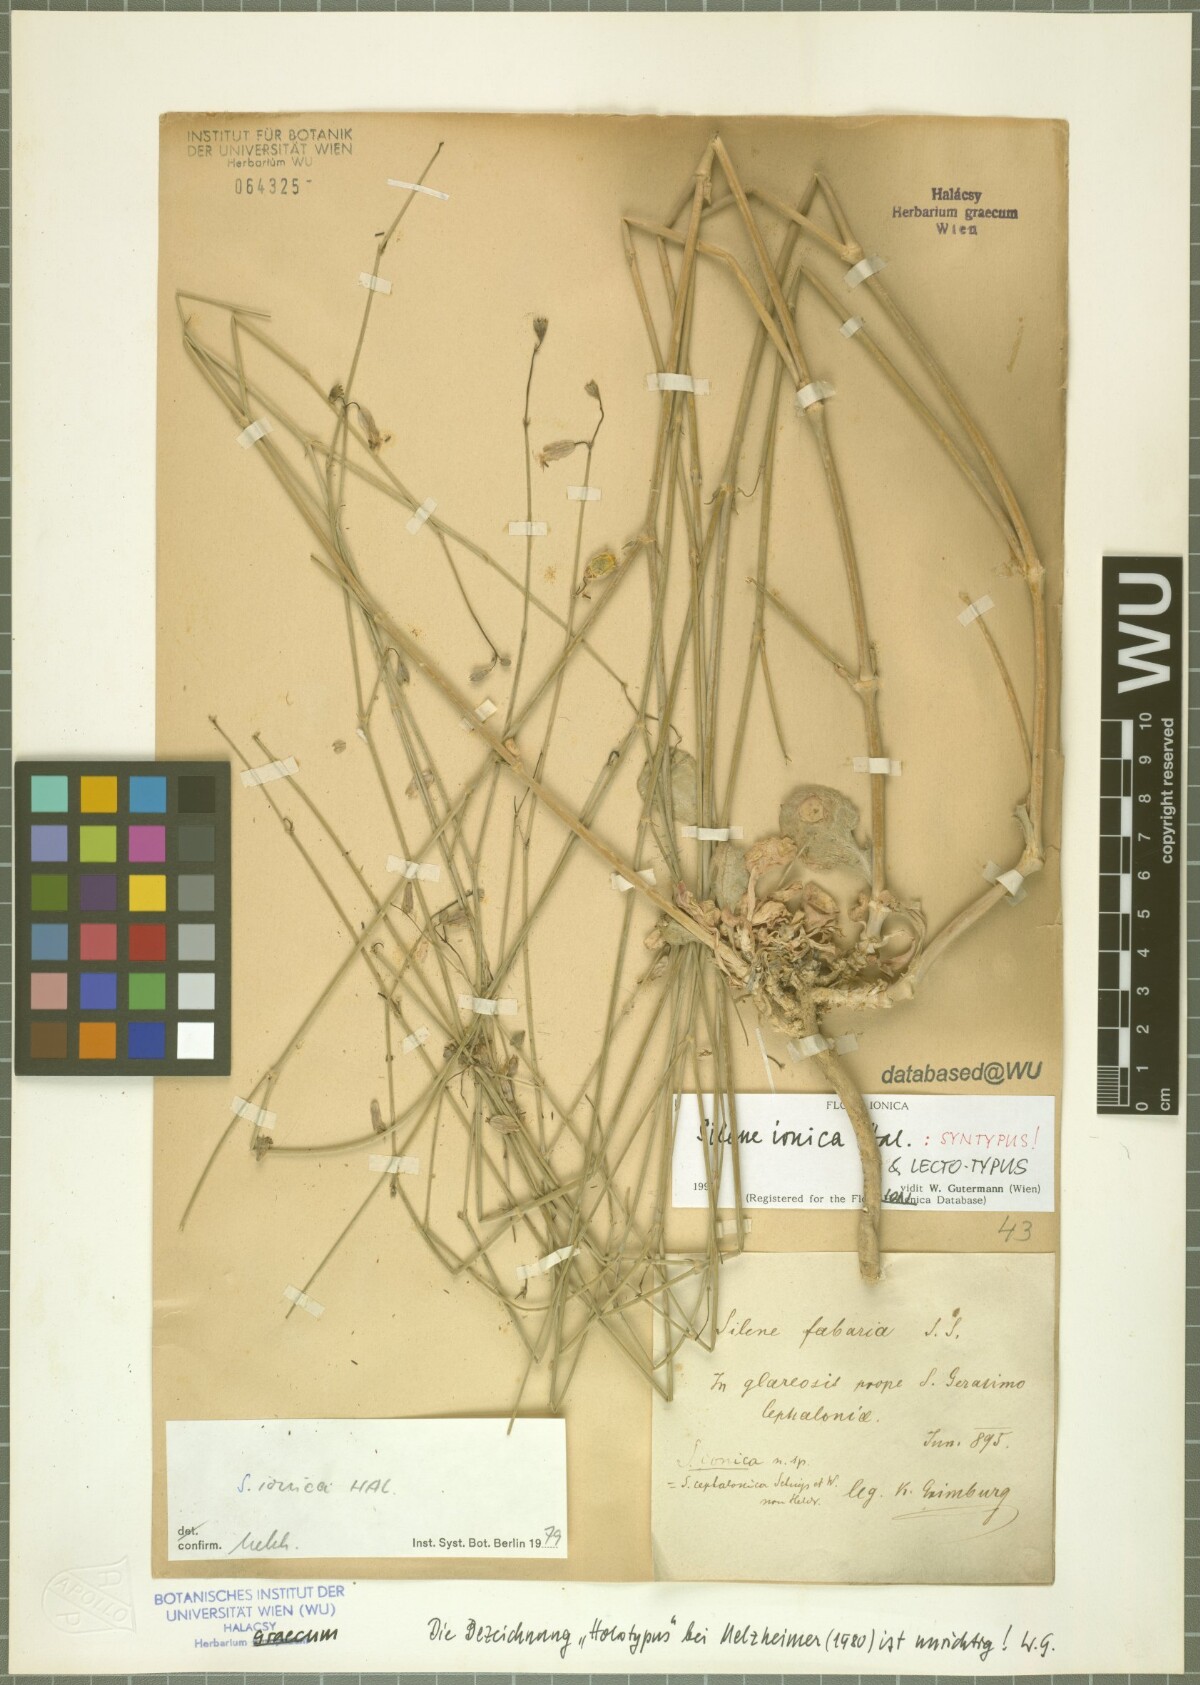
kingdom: Plantae
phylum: Tracheophyta
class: Magnoliopsida
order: Caryophyllales
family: Caryophyllaceae
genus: Silene
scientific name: Silene ionica
